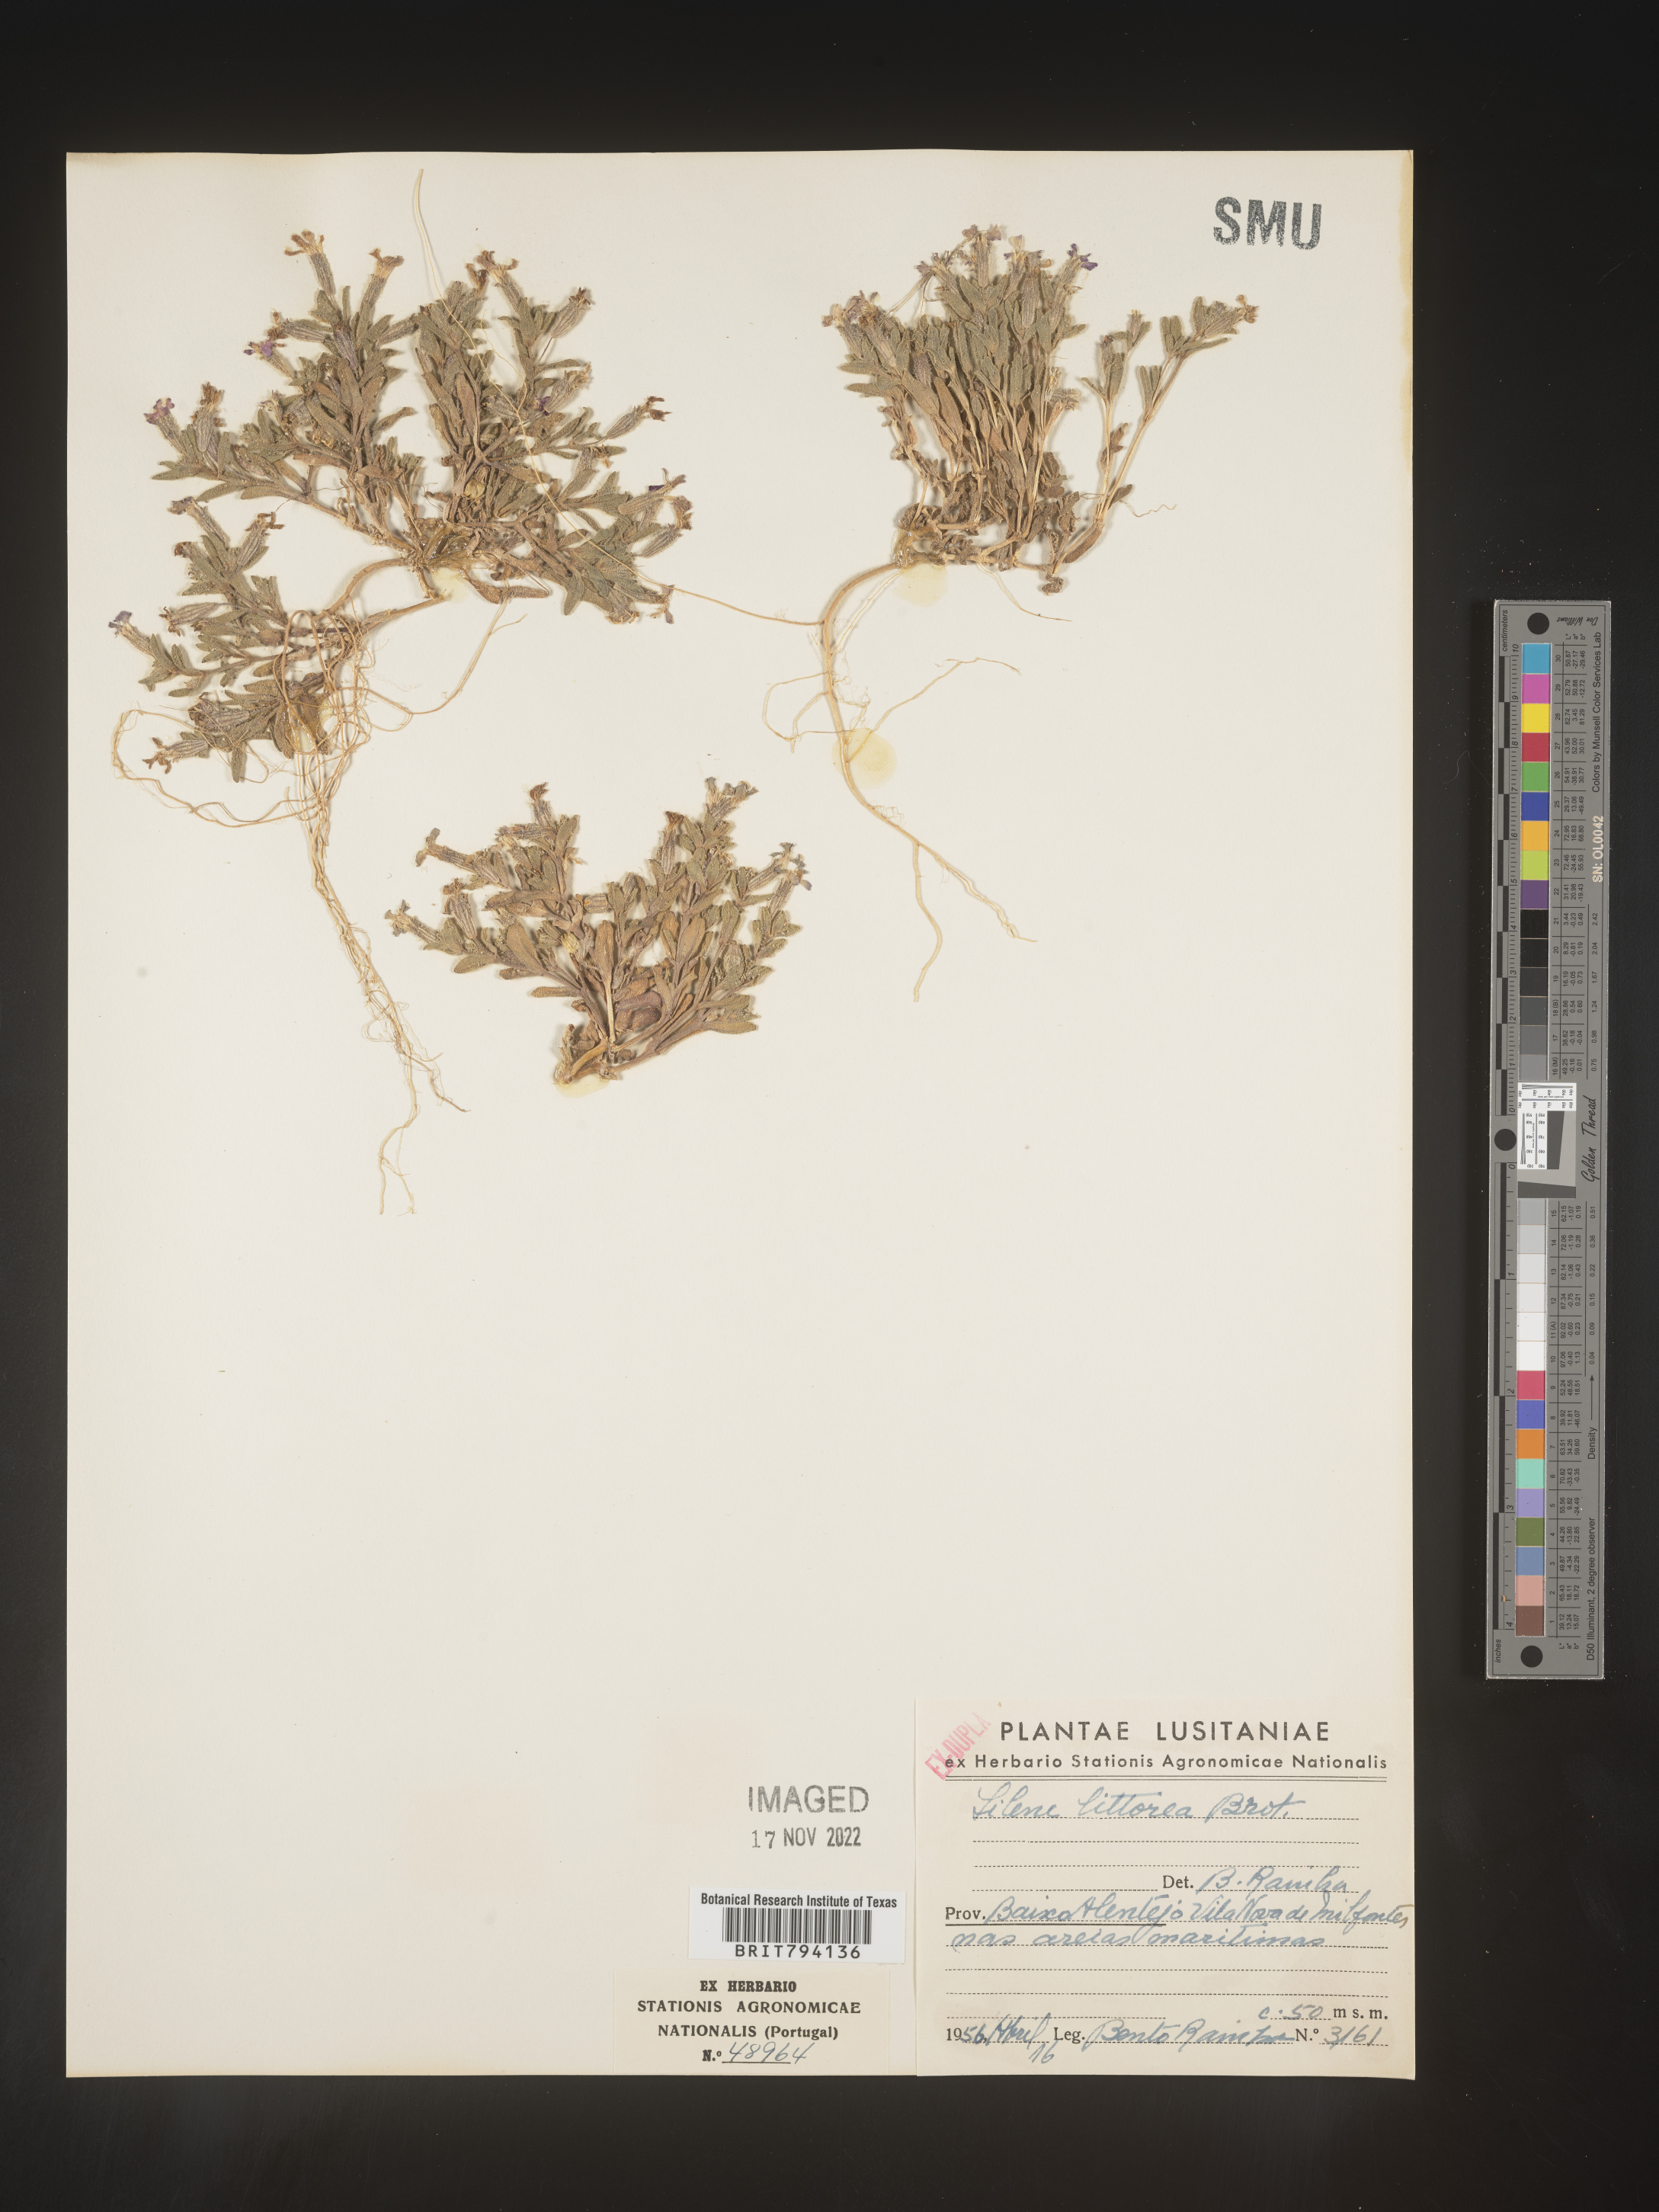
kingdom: Plantae
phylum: Tracheophyta
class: Magnoliopsida
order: Caryophyllales
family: Caryophyllaceae
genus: Silene
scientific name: Silene littorea
